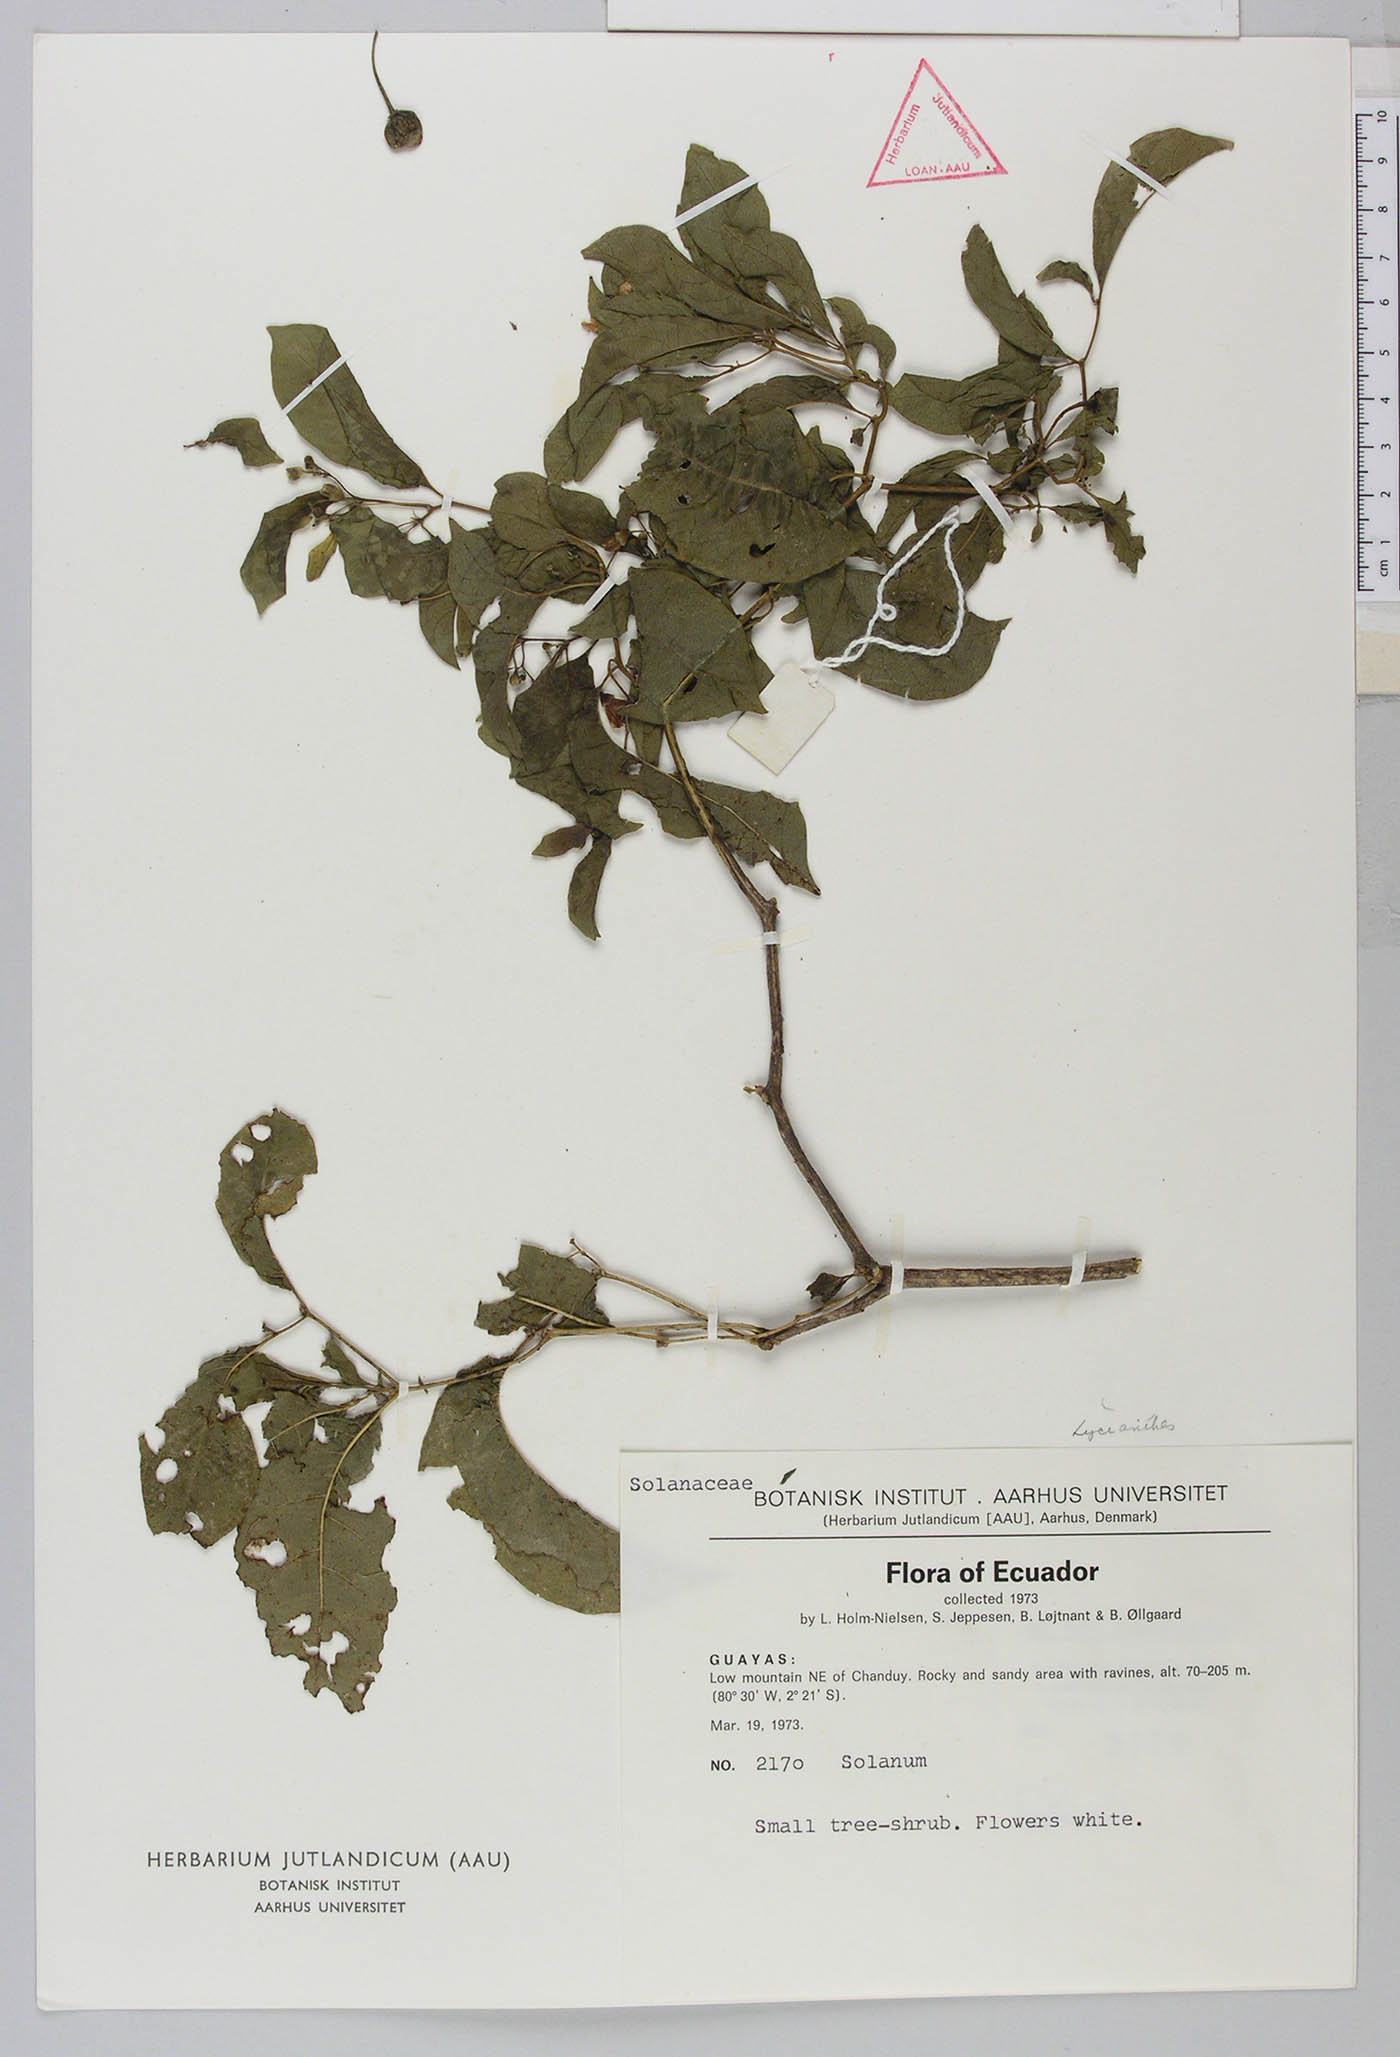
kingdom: Plantae
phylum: Tracheophyta
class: Magnoliopsida
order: Solanales
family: Solanaceae
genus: Lycianthes
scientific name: Lycianthes
